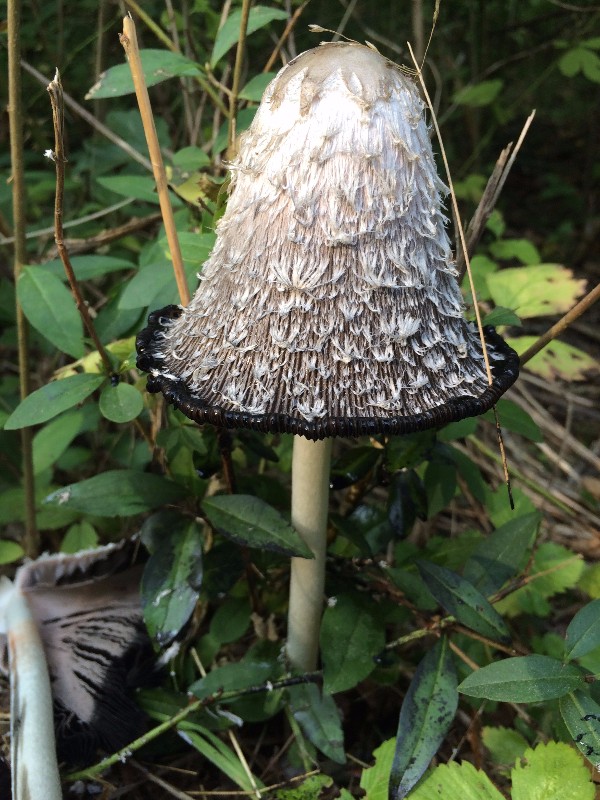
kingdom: Fungi
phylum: Basidiomycota
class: Agaricomycetes
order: Agaricales
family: Agaricaceae
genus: Coprinus
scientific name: Coprinus comatus
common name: stor parykhat
